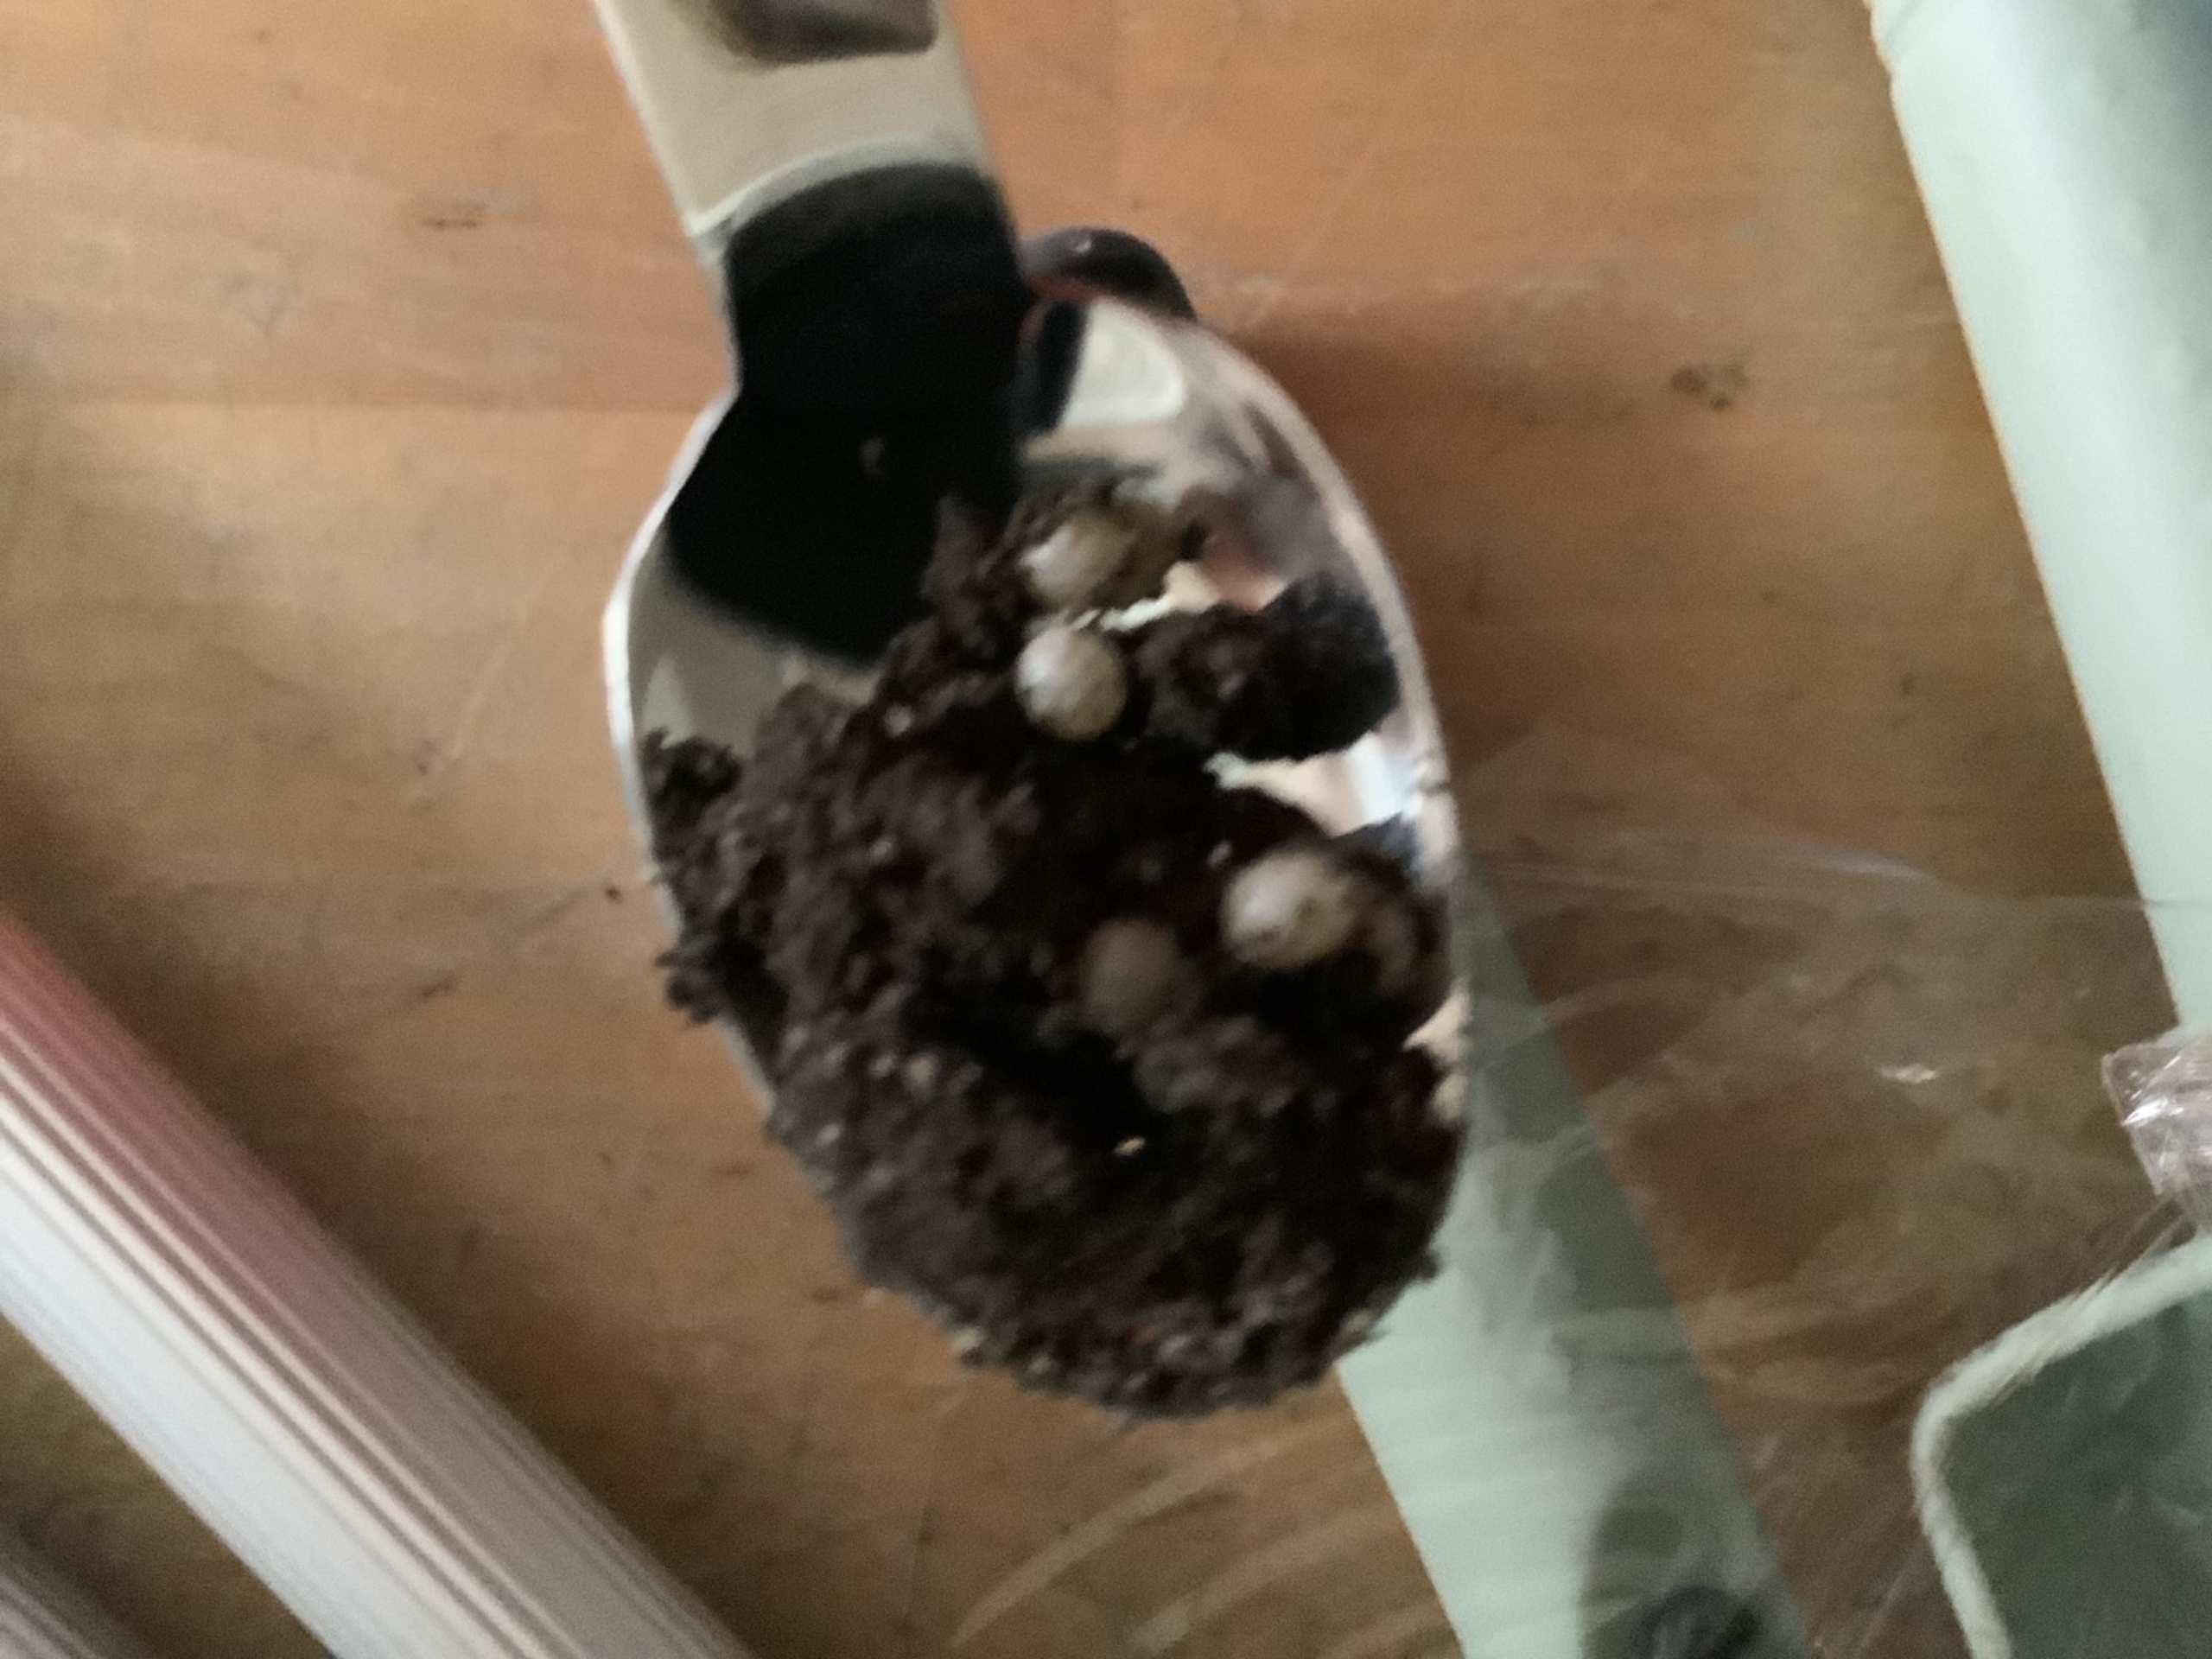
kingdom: Animalia
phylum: Mollusca
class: Gastropoda
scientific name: Gastropoda
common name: Snegle
